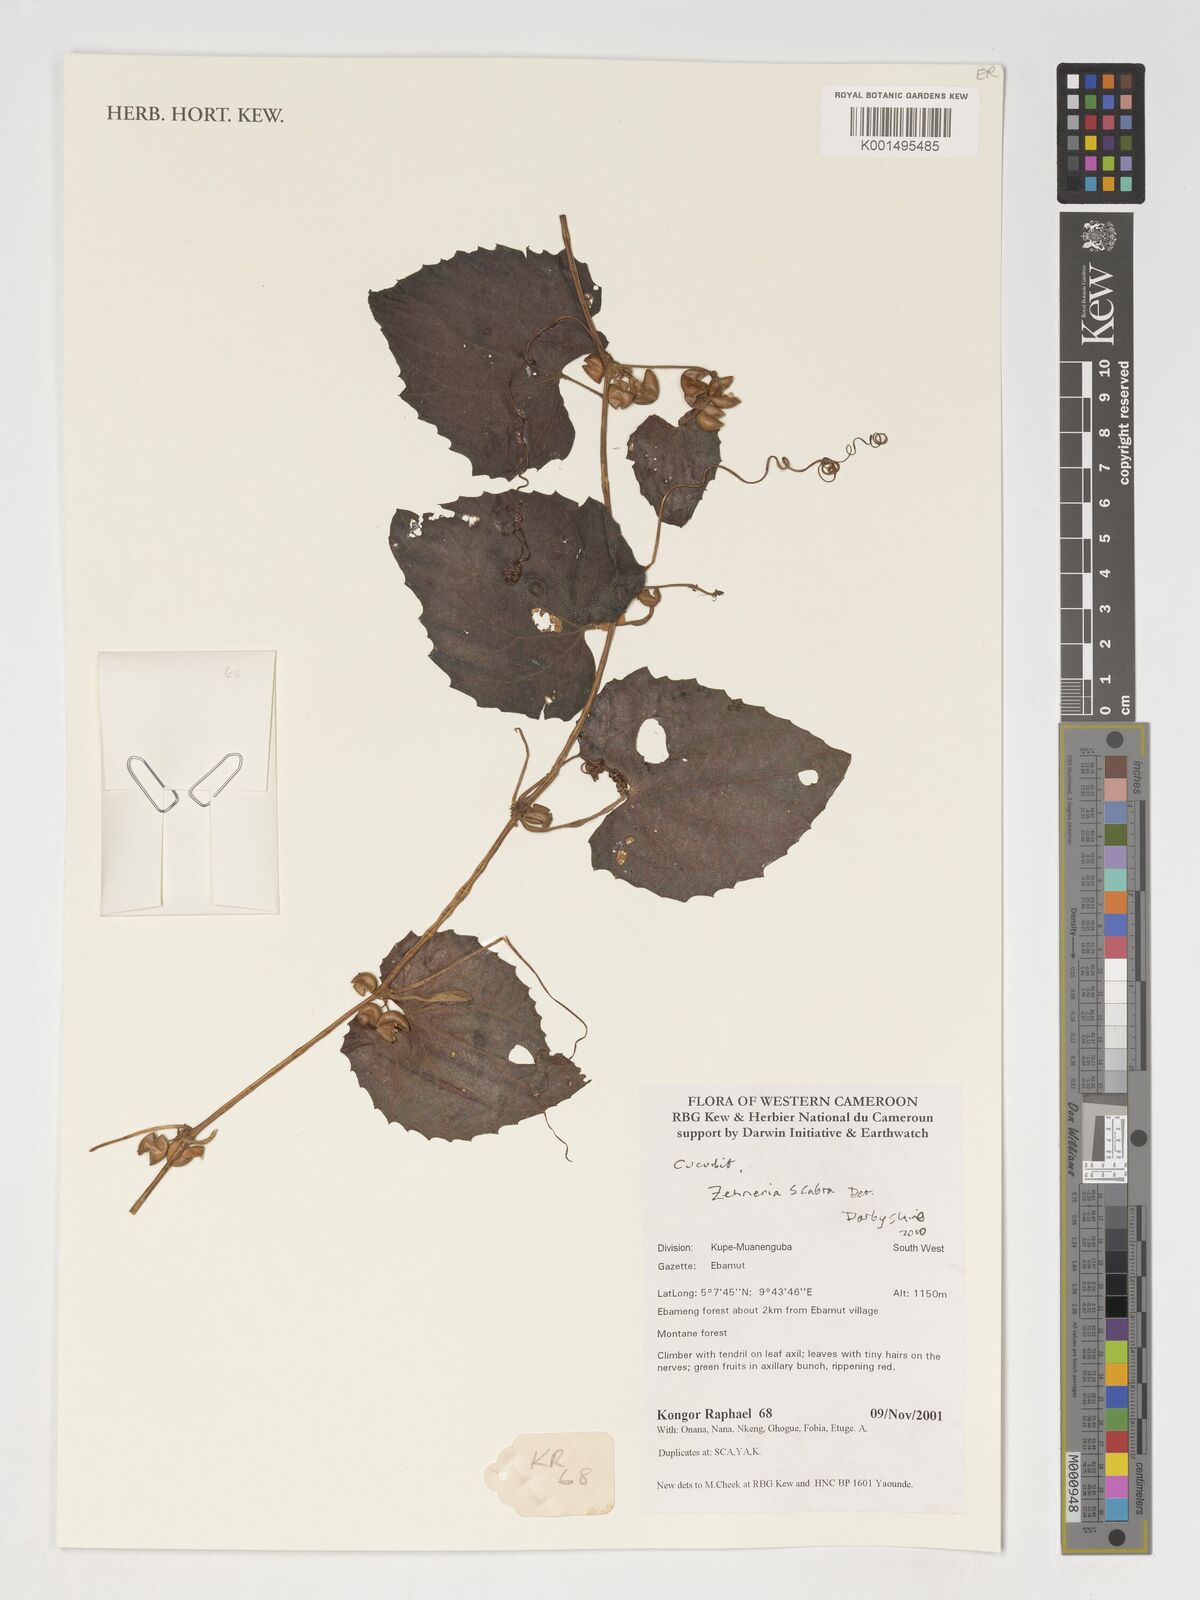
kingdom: Plantae
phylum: Tracheophyta
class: Magnoliopsida
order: Cucurbitales
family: Cucurbitaceae
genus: Zehneria
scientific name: Zehneria scabra
